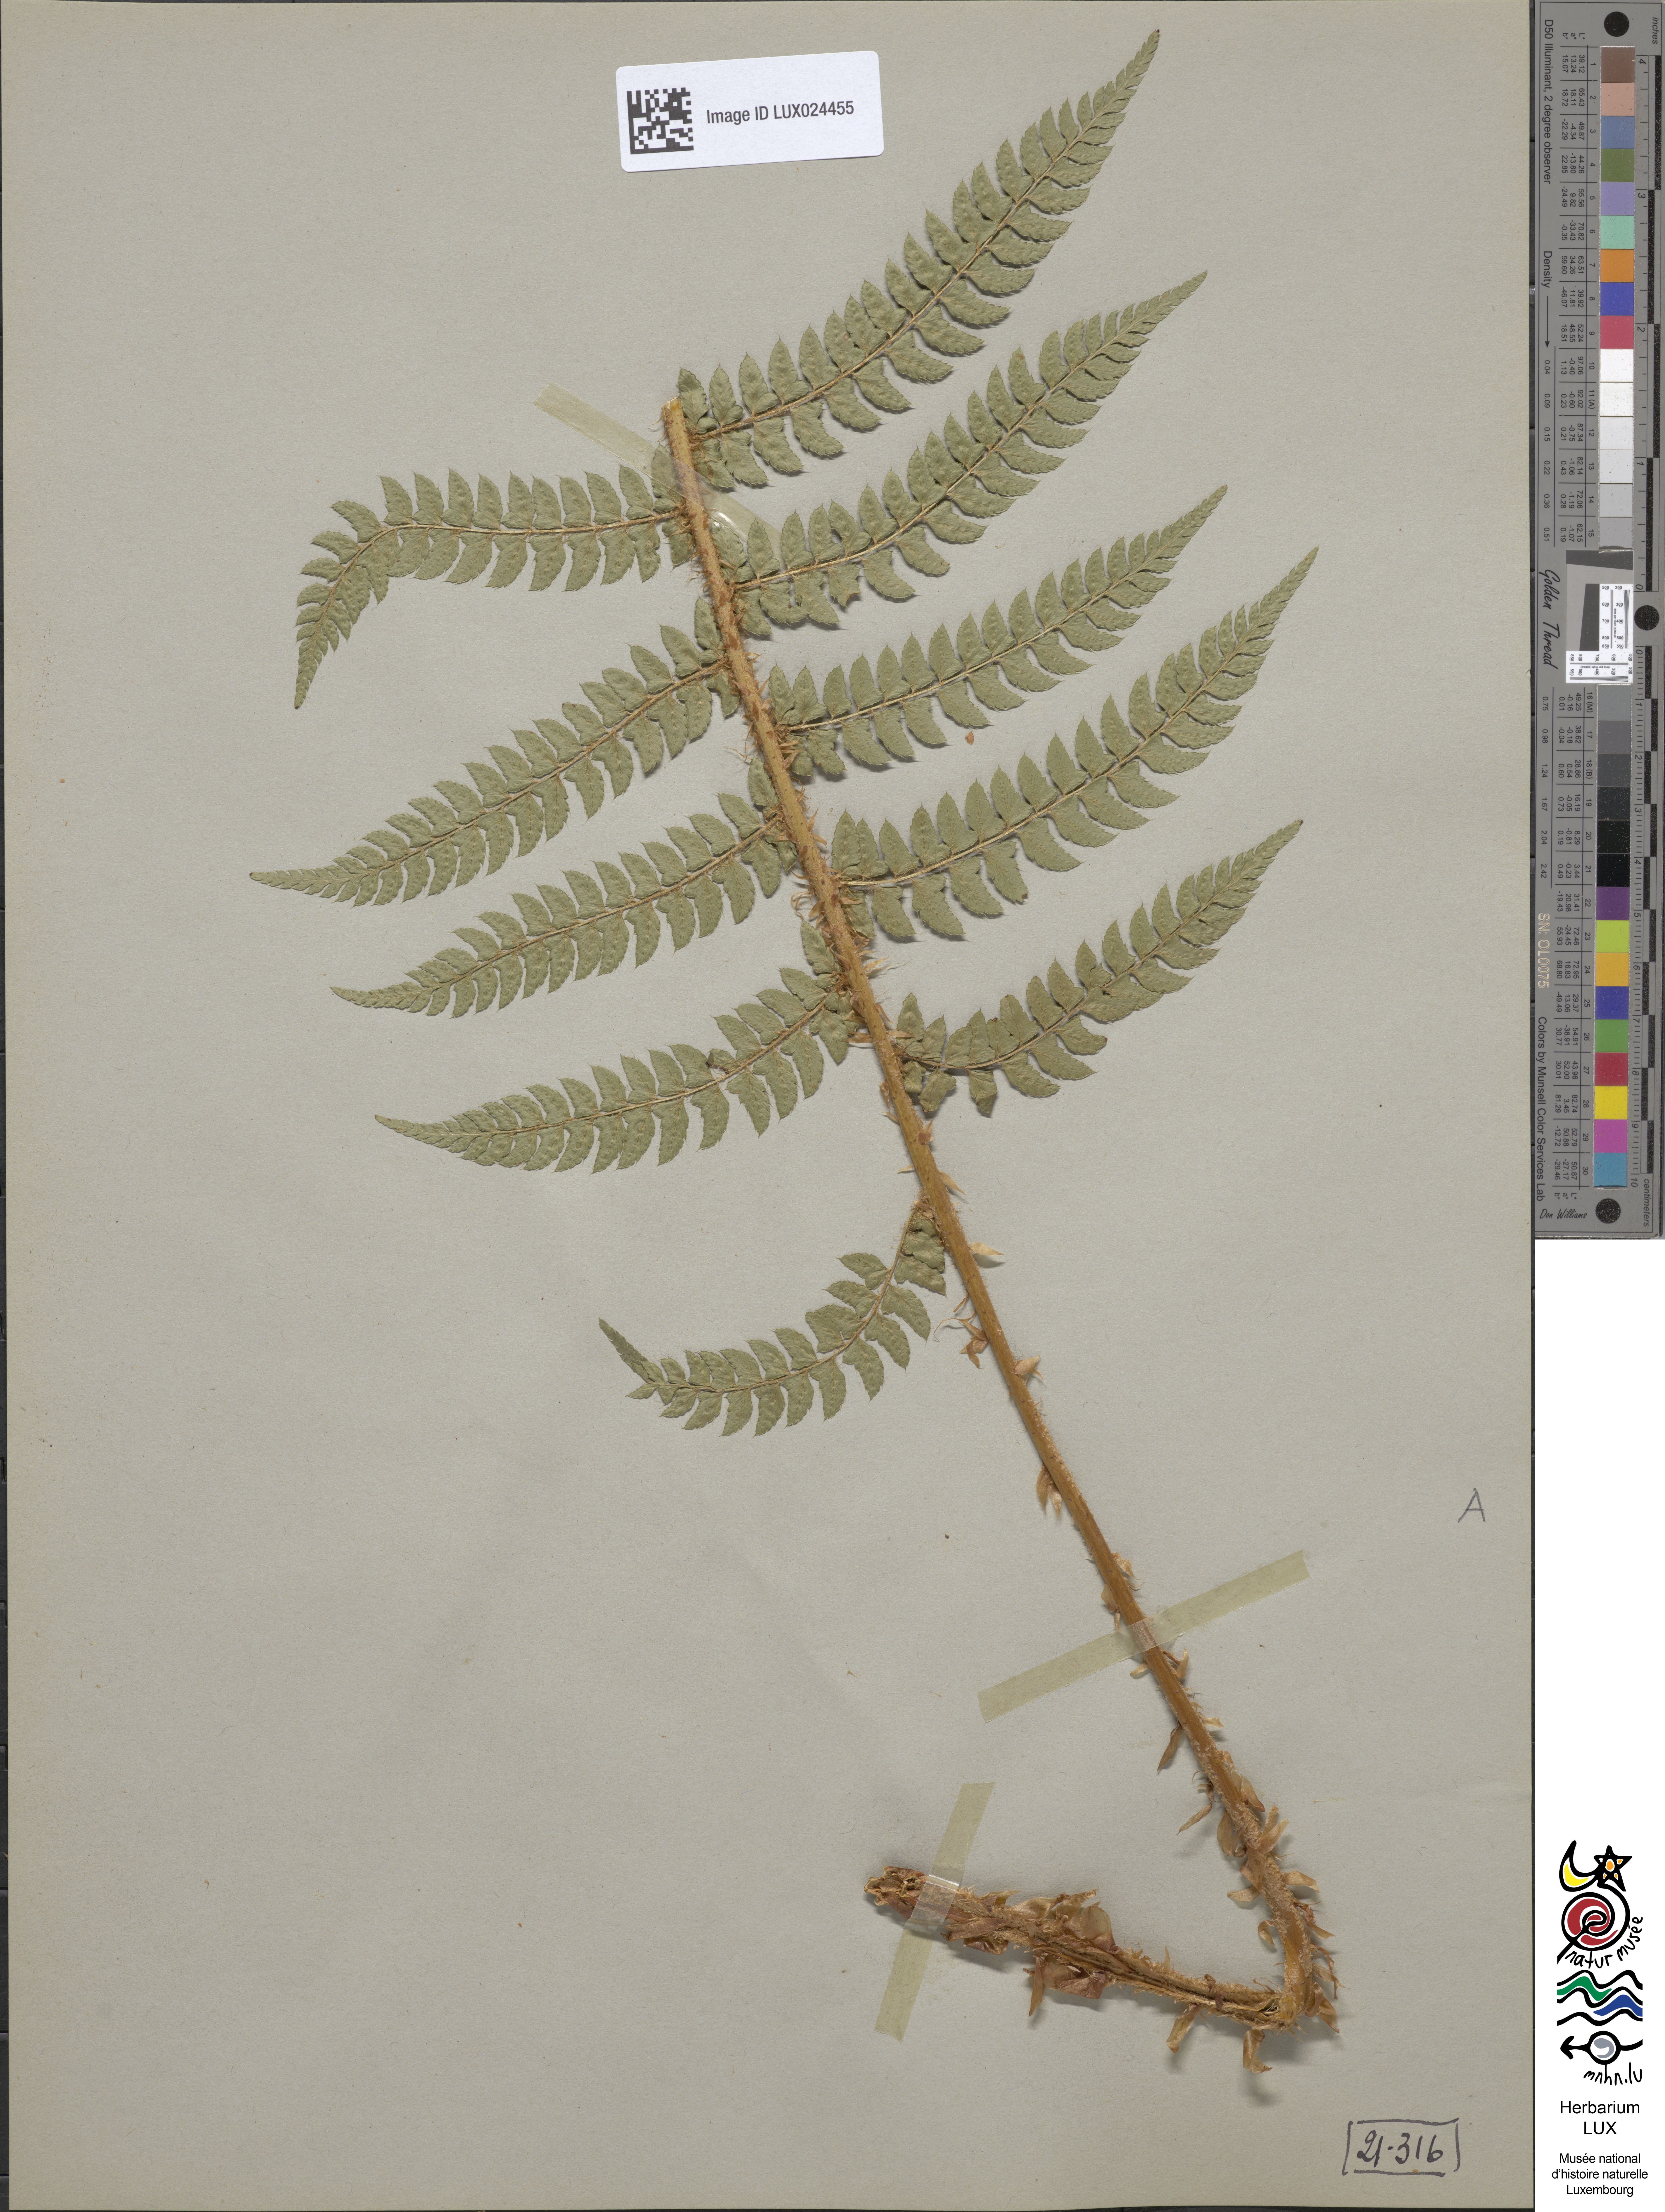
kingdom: Plantae
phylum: Tracheophyta
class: Polypodiopsida
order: Polypodiales
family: Dryopteridaceae
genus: Polystichum
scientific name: Polystichum setiferum
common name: Soft shield-fern
